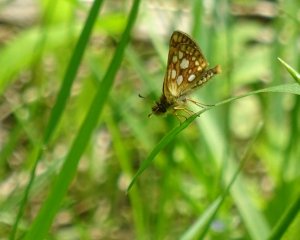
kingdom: Animalia
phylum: Arthropoda
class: Insecta
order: Lepidoptera
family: Hesperiidae
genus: Carterocephalus
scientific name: Carterocephalus palaemon
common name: Chequered Skipper
